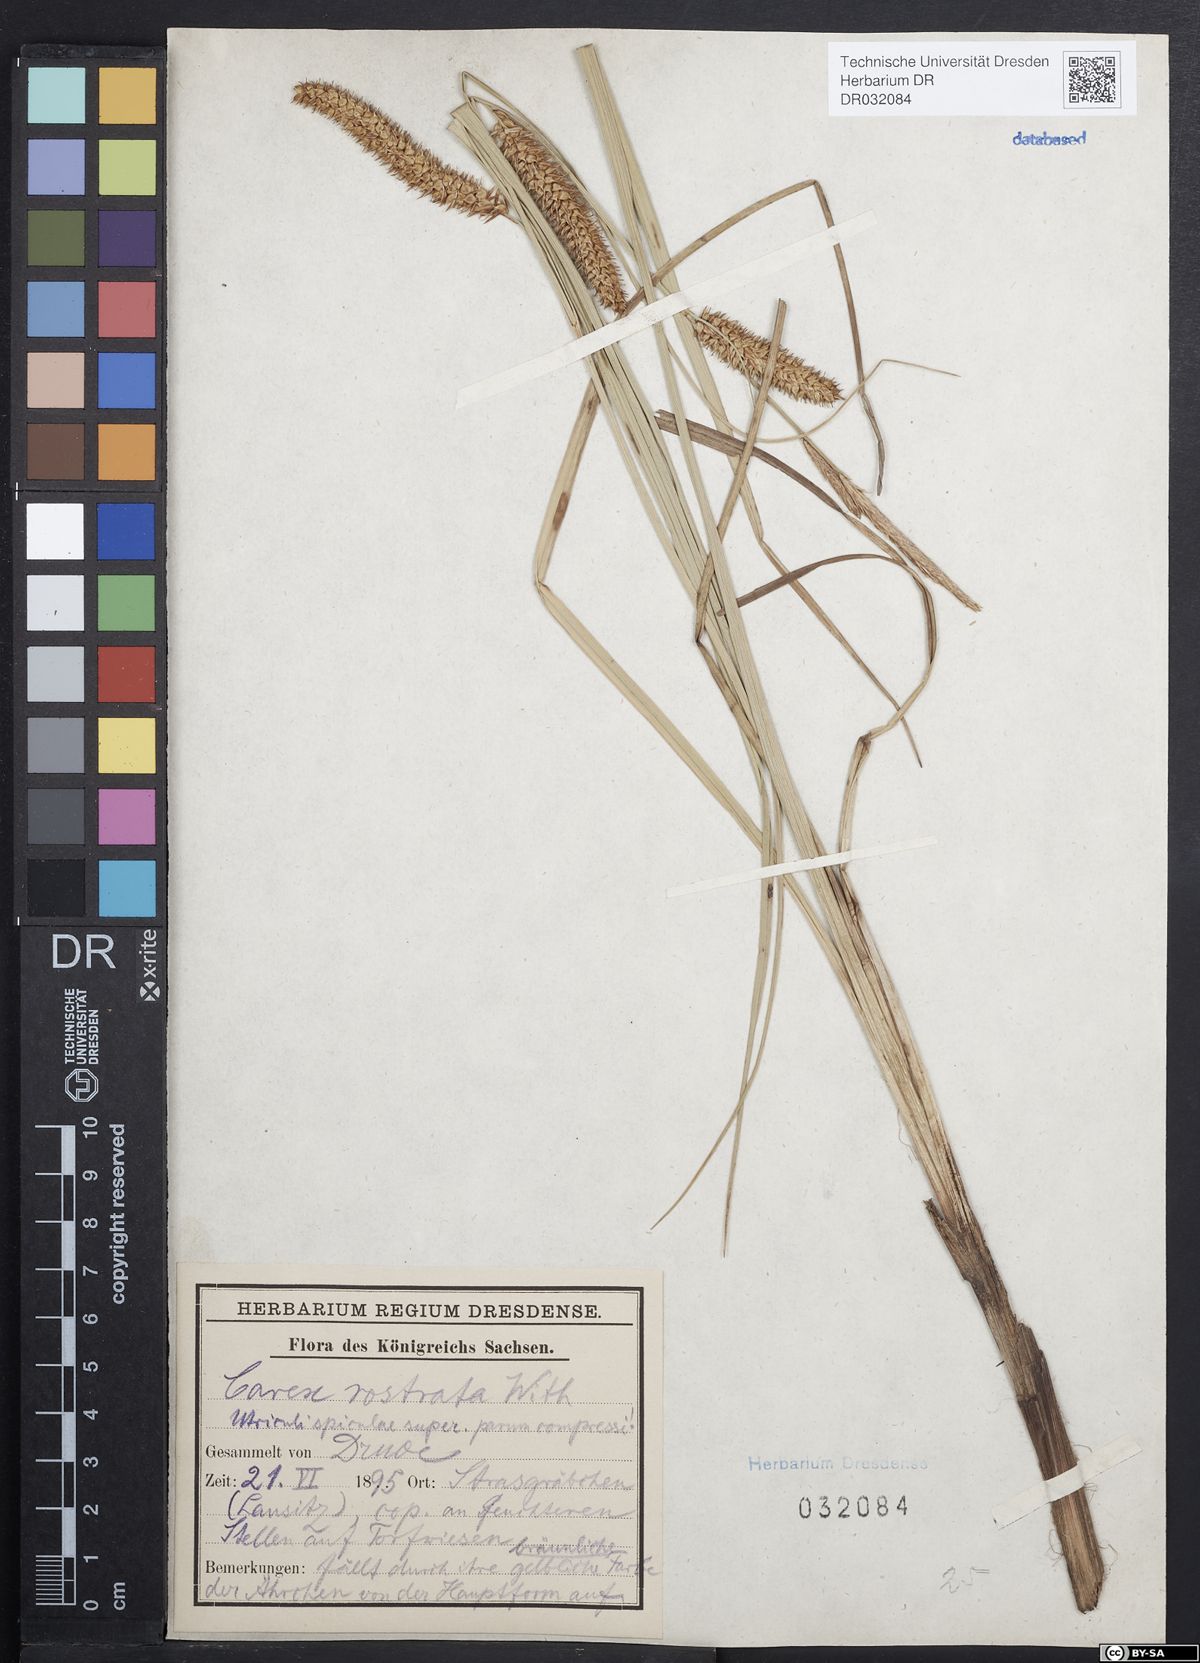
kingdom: Plantae
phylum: Tracheophyta
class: Liliopsida
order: Poales
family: Cyperaceae
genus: Carex
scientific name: Carex rostrata
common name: Bottle sedge
